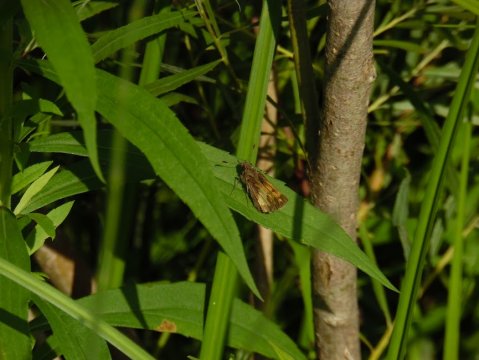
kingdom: Animalia
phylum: Arthropoda
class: Insecta
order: Lepidoptera
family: Hesperiidae
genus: Lon
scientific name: Lon hobomok
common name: Hobomok Skipper
